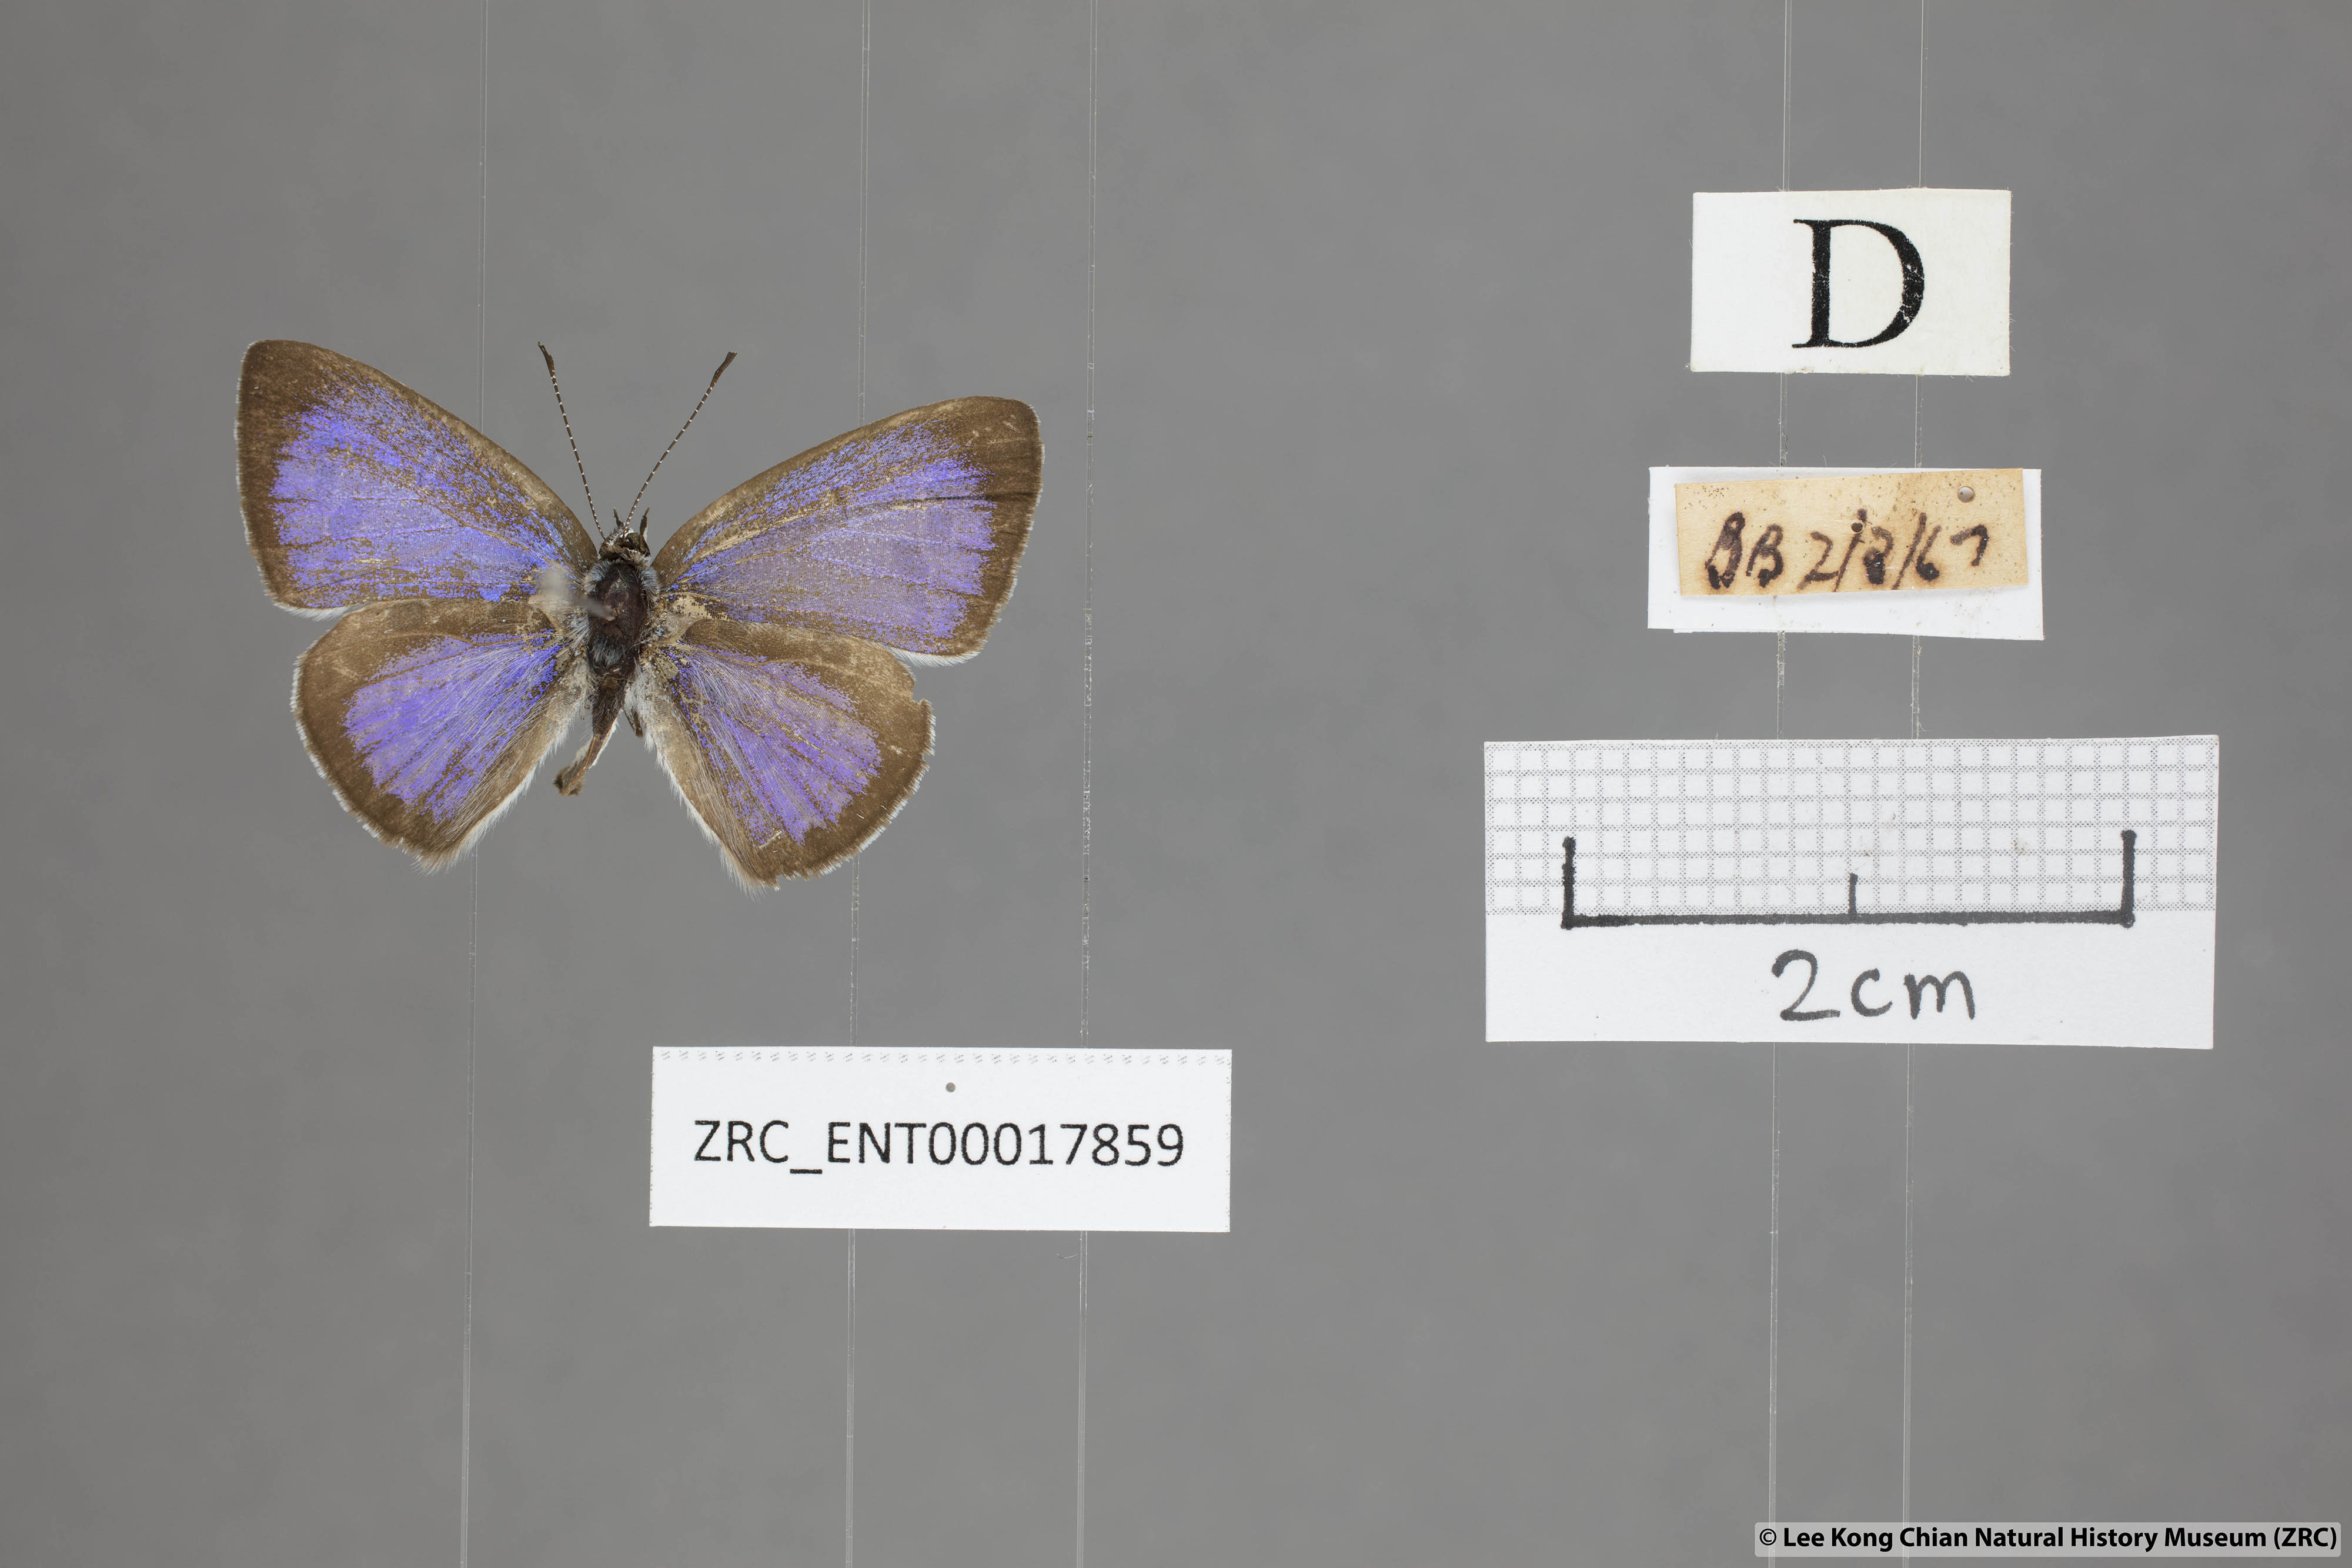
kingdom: Animalia
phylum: Arthropoda
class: Insecta
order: Lepidoptera
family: Lycaenidae
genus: Acytolepis
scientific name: Acytolepis puspa
